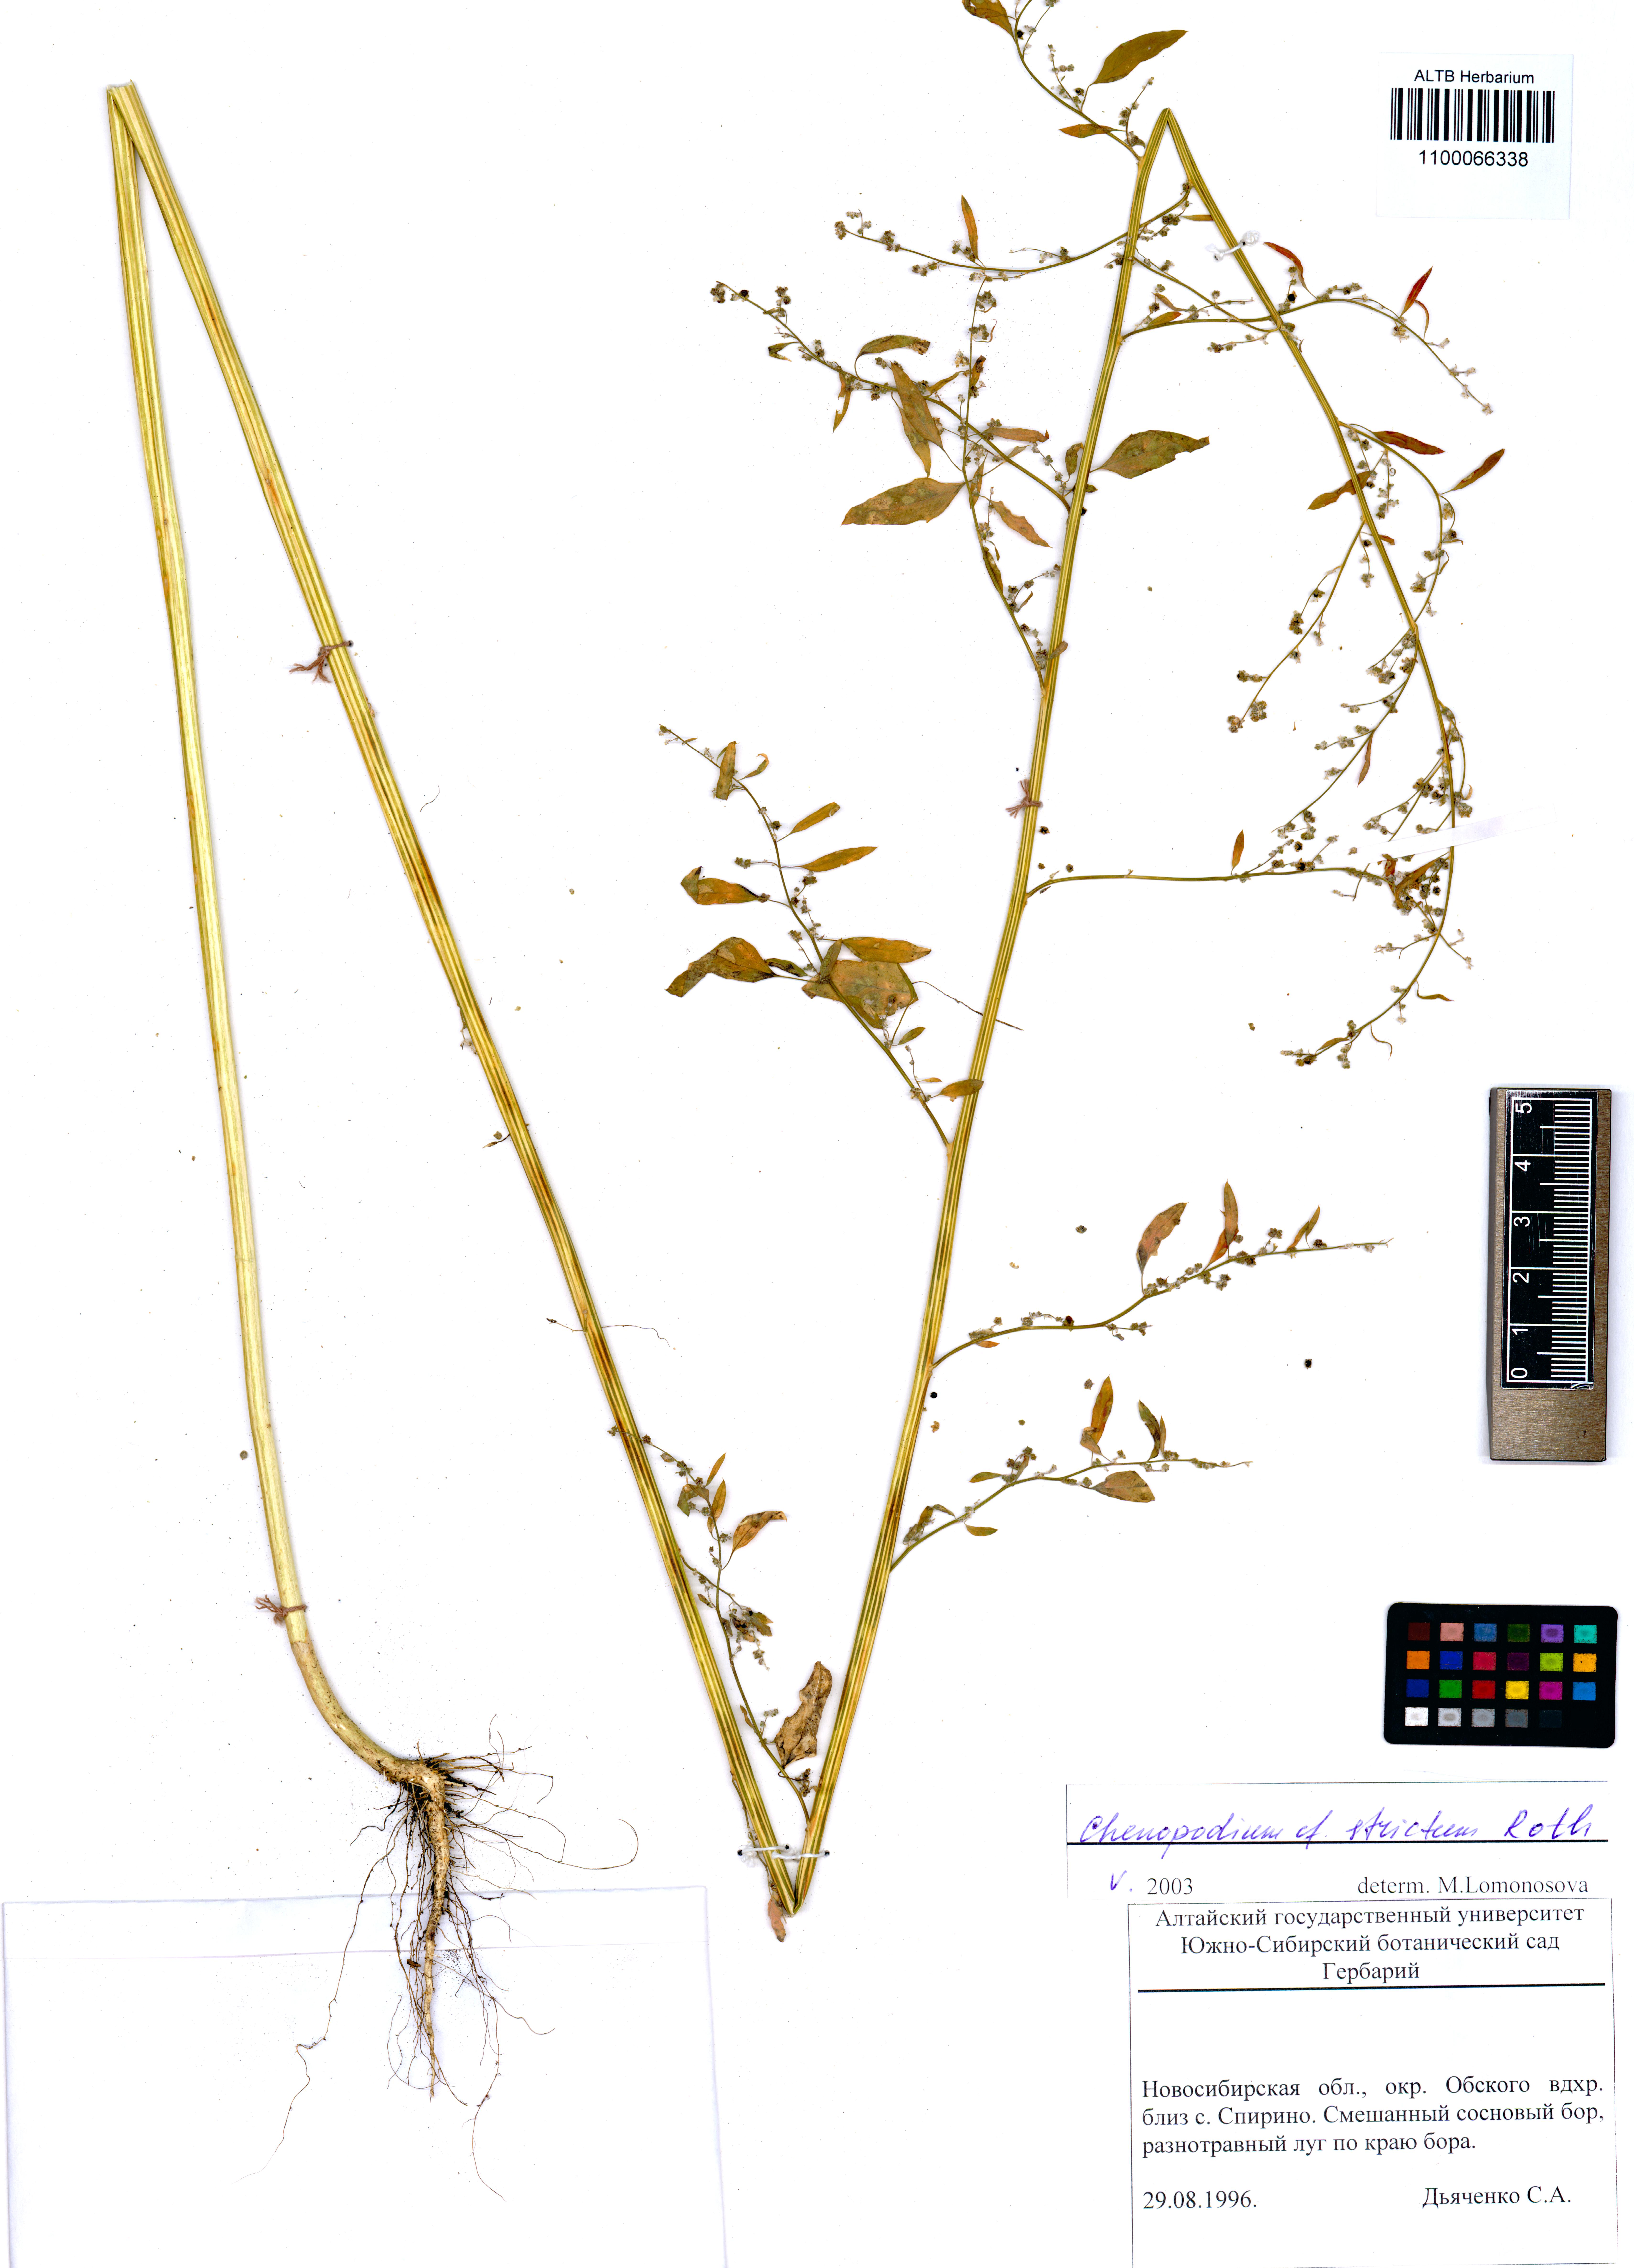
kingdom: Plantae
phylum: Tracheophyta
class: Magnoliopsida
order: Caryophyllales
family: Amaranthaceae
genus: Chenopodium
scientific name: Chenopodium album
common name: Fat-hen
